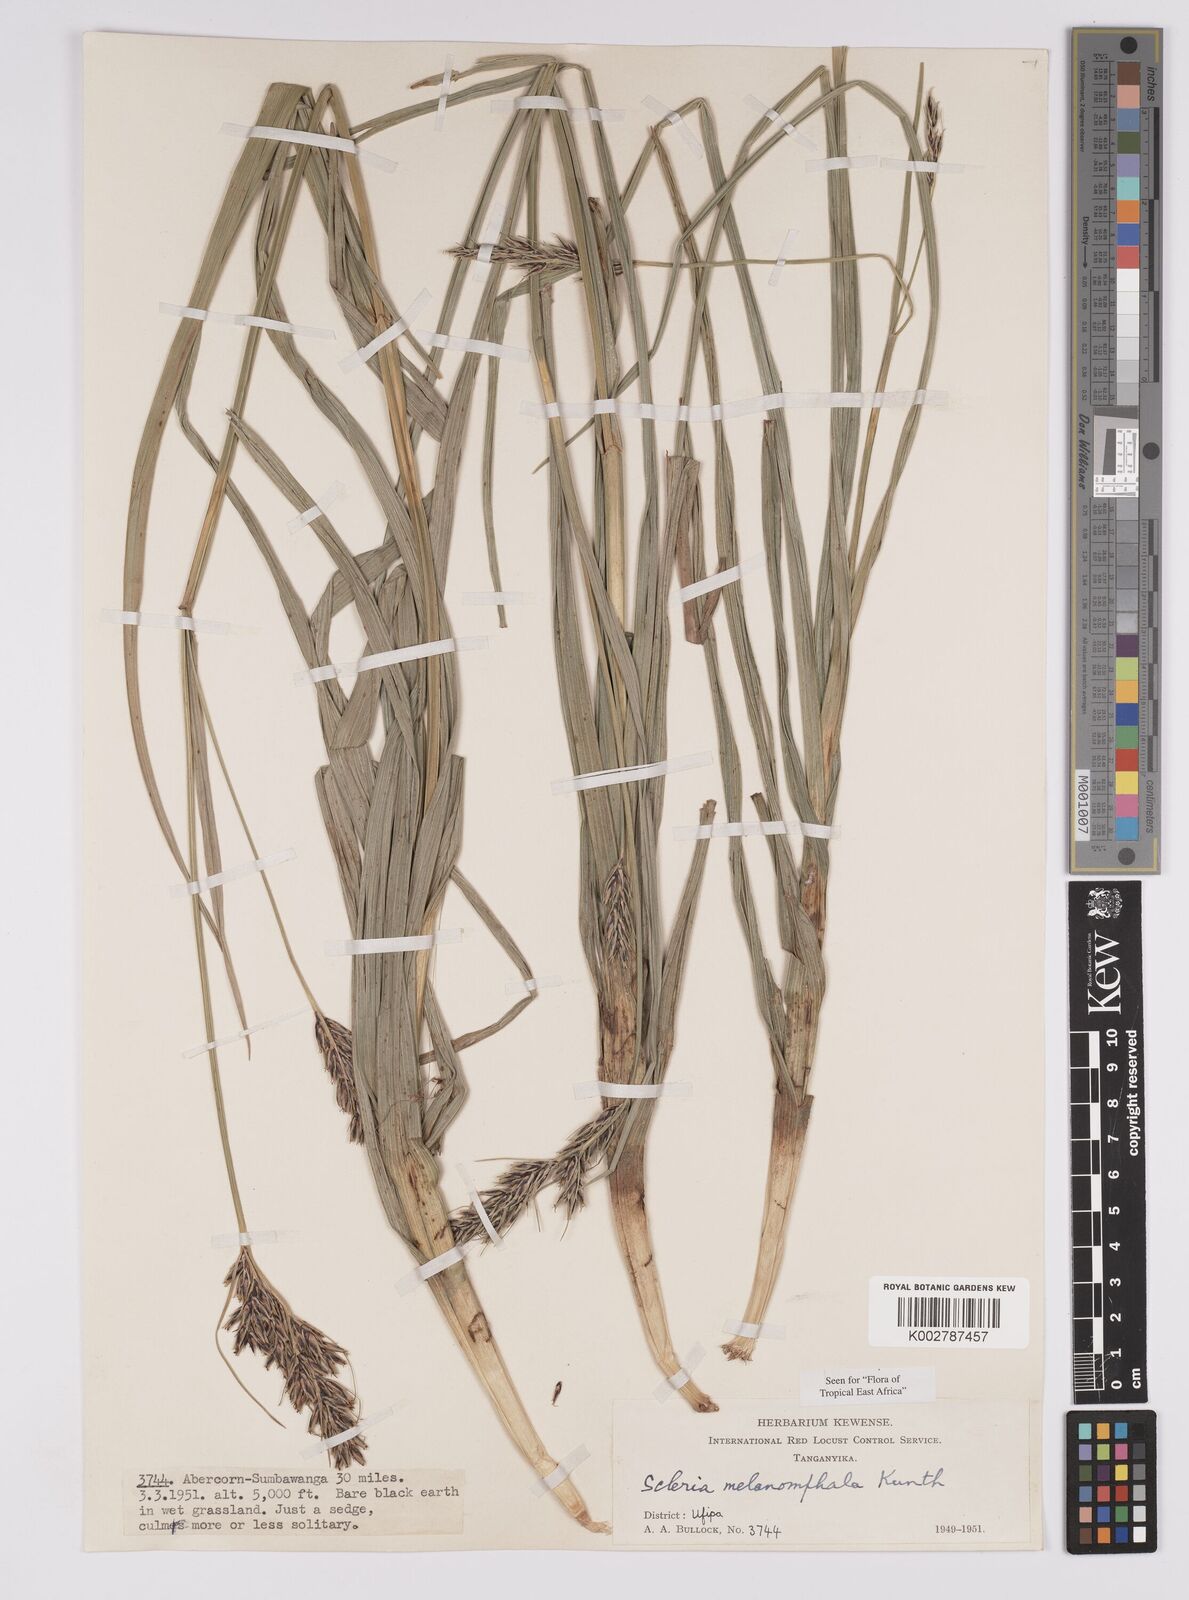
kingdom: Plantae
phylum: Tracheophyta
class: Liliopsida
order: Poales
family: Cyperaceae
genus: Scleria
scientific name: Scleria melanomphala
